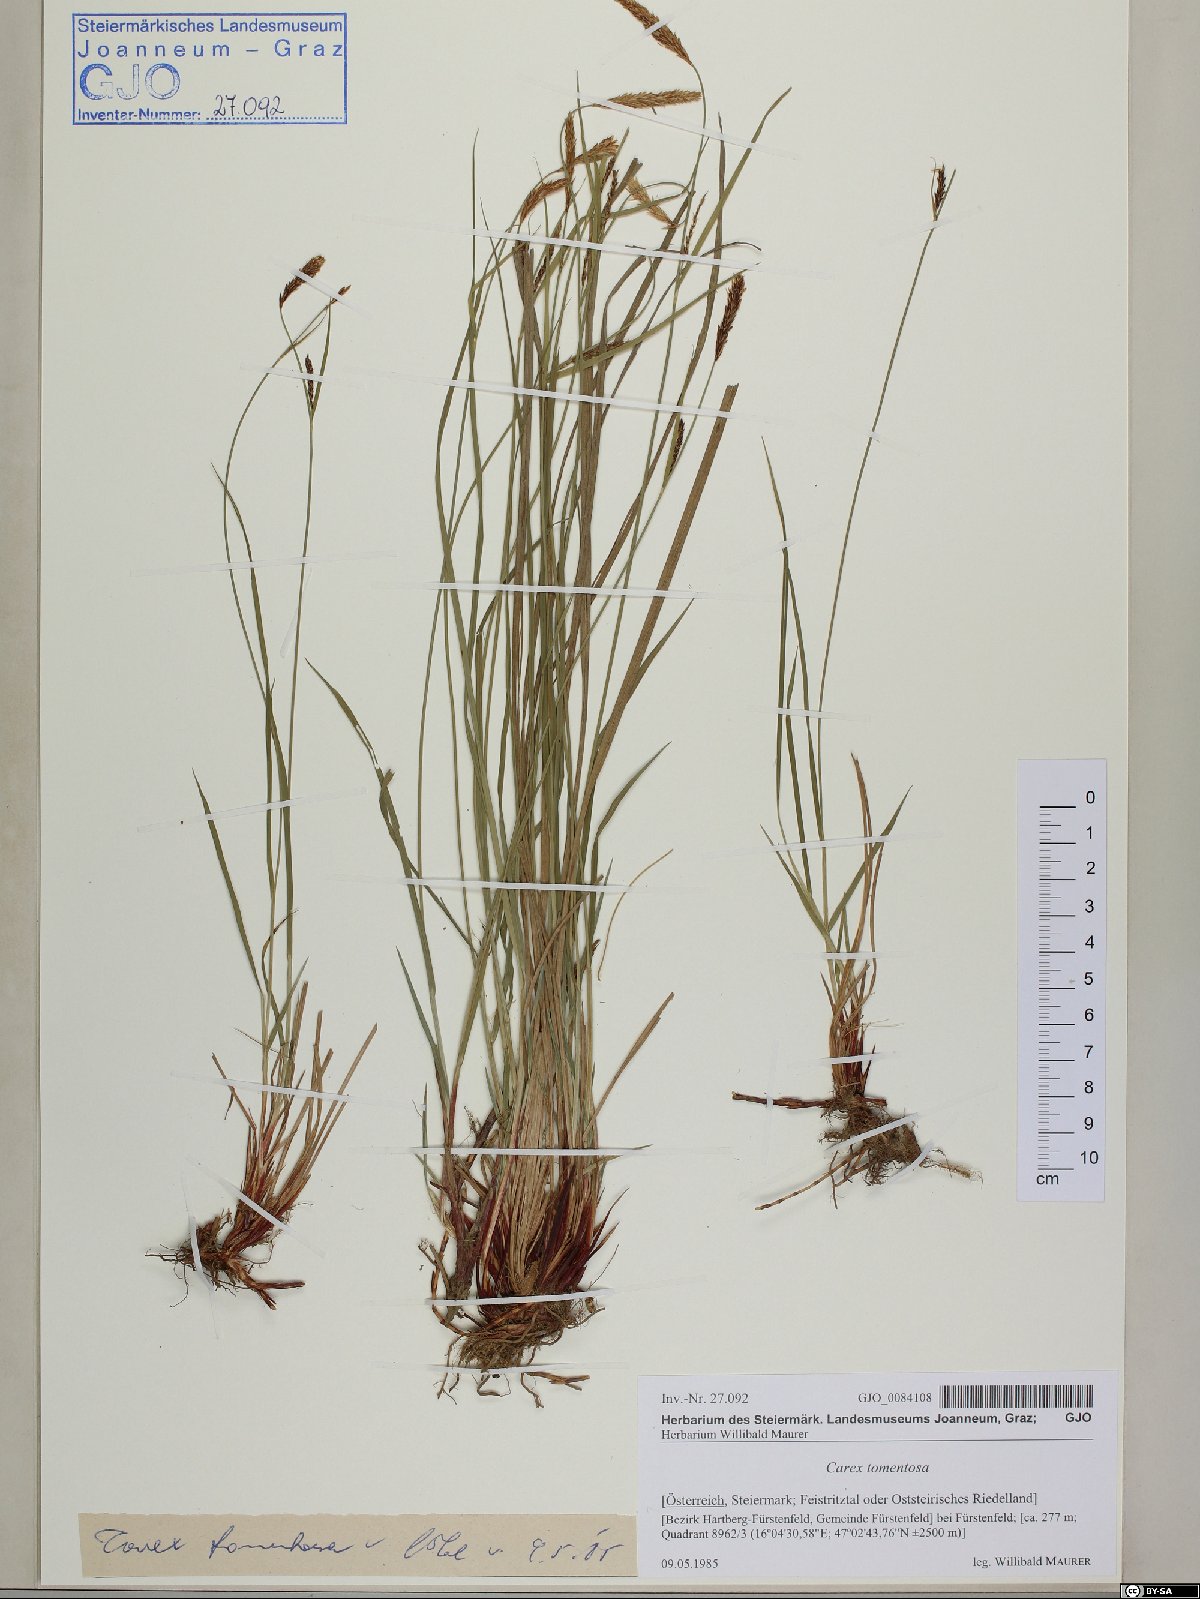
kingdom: Plantae
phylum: Tracheophyta
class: Liliopsida
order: Poales
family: Cyperaceae
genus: Carex
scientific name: Carex tomentosa
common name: Downy-fruited sedge
